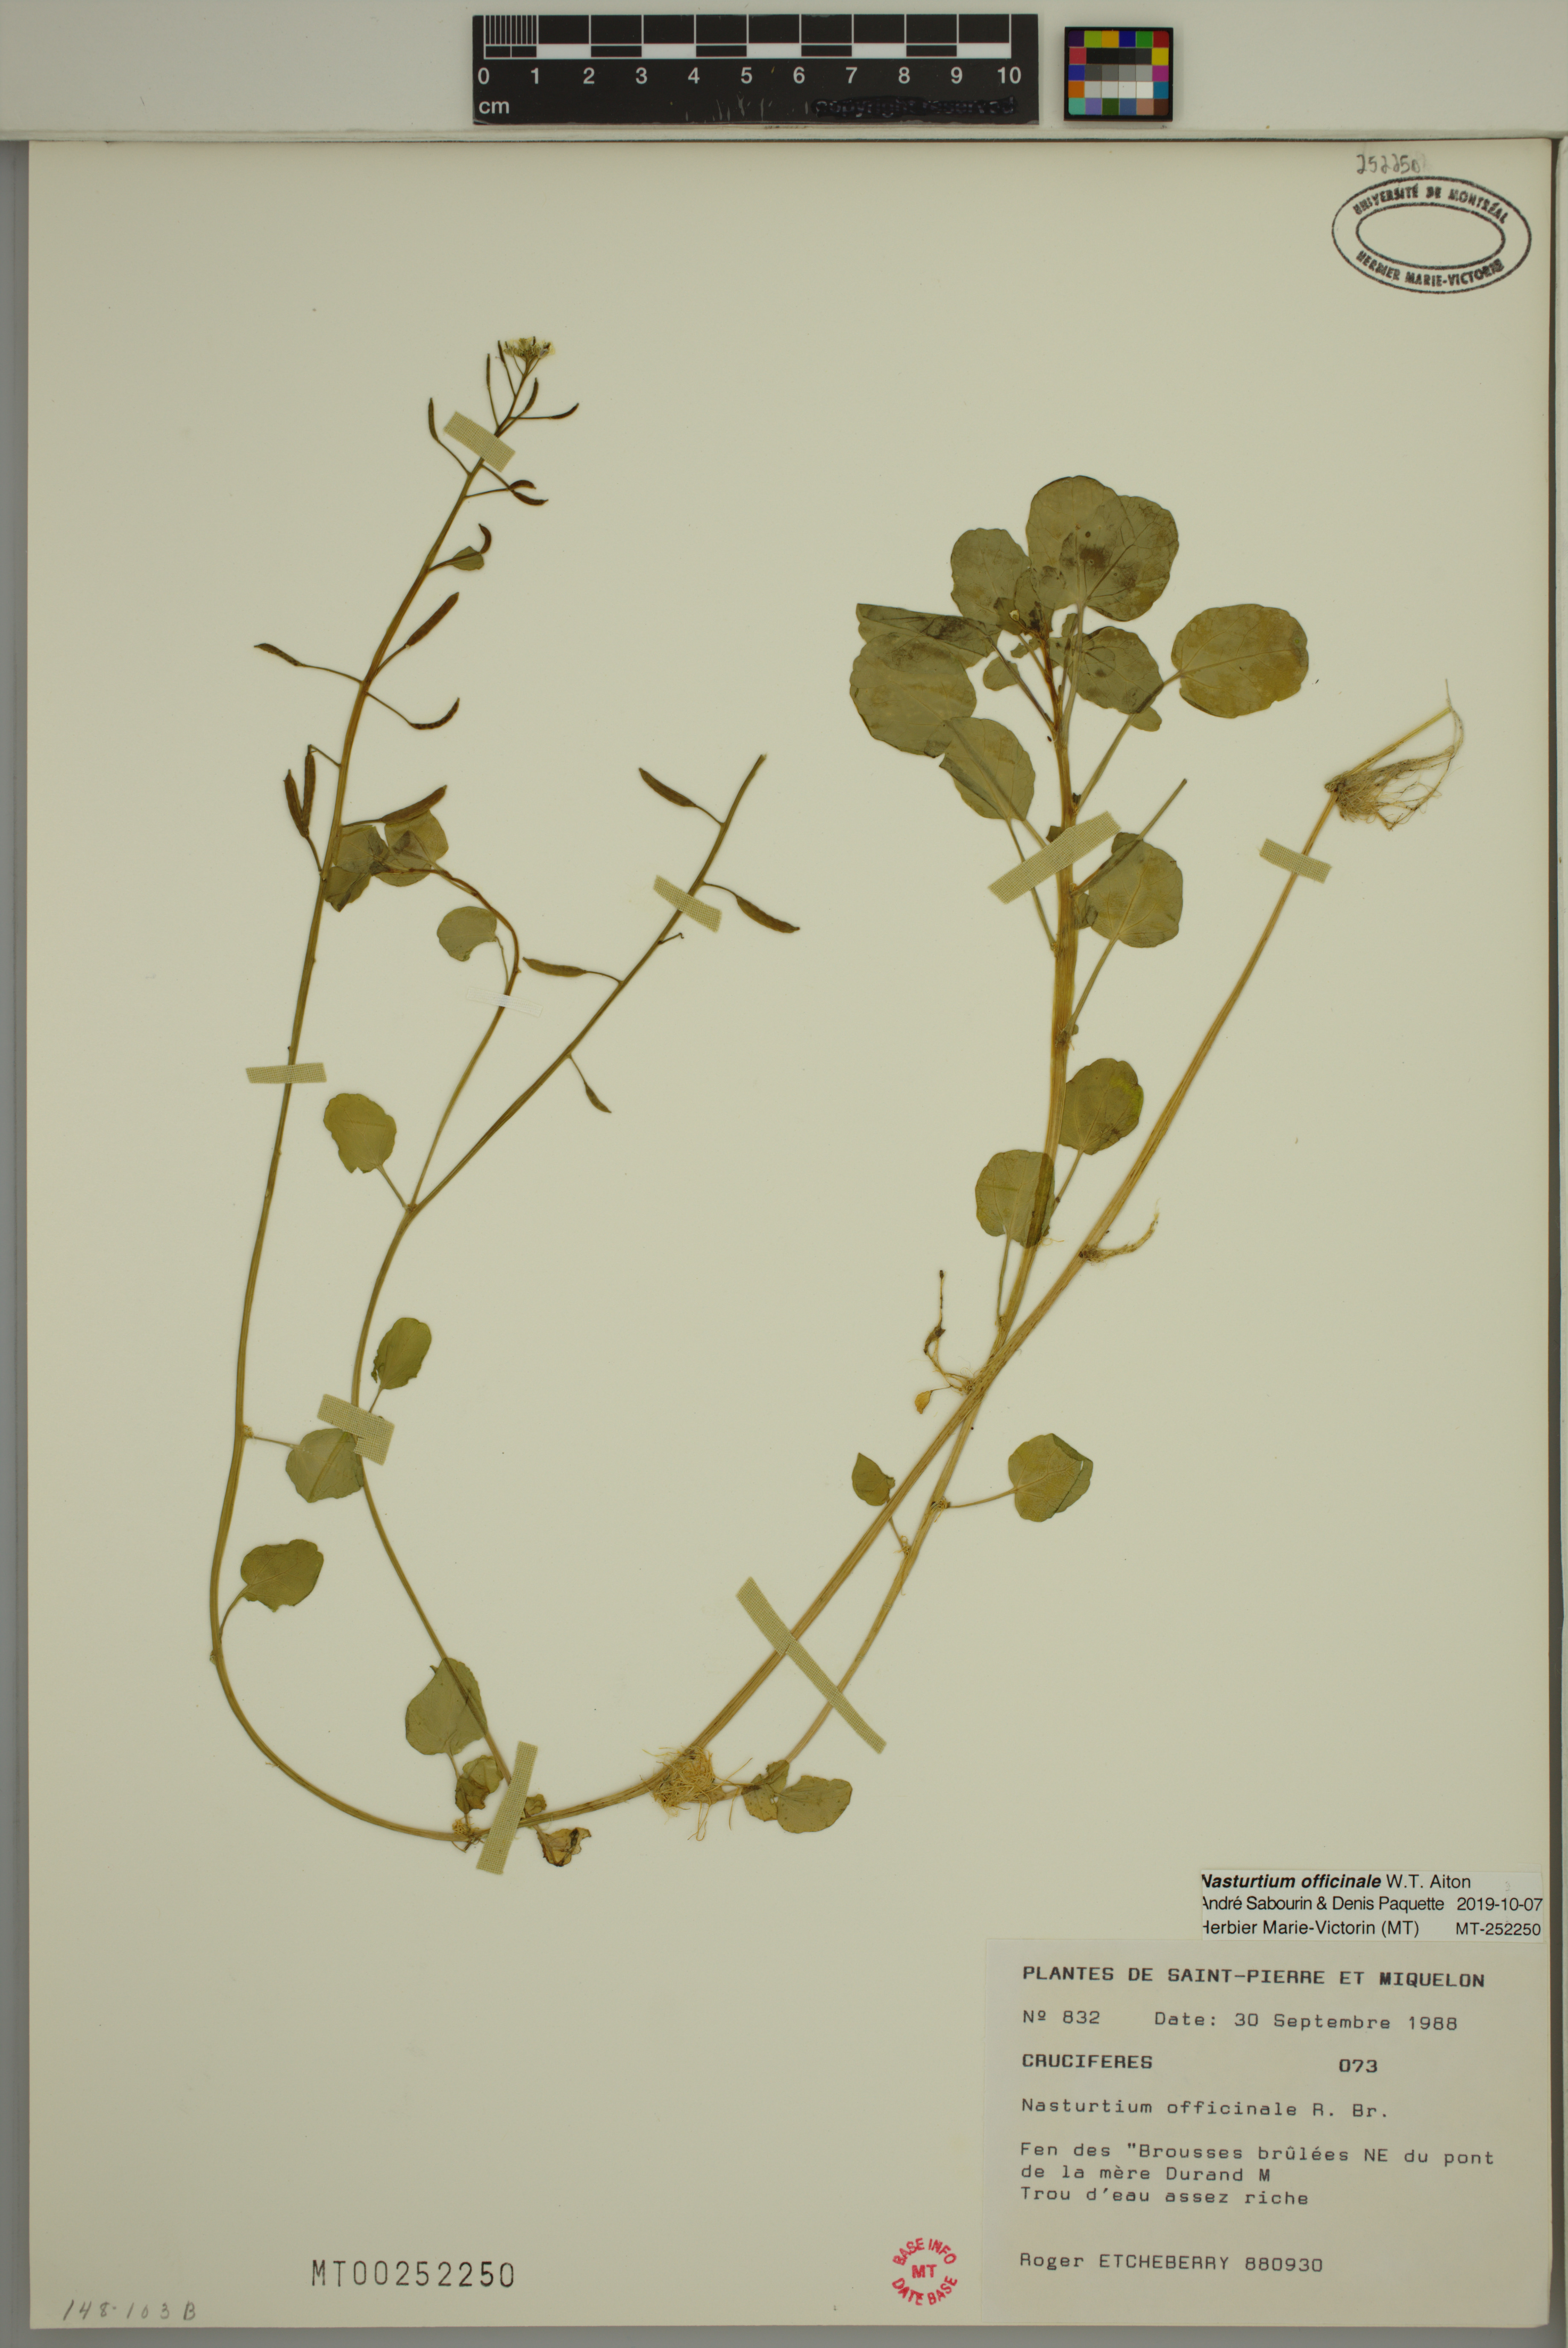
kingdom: Plantae
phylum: Tracheophyta
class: Magnoliopsida
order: Brassicales
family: Brassicaceae
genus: Nasturtium
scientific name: Nasturtium officinale
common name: Watercress
